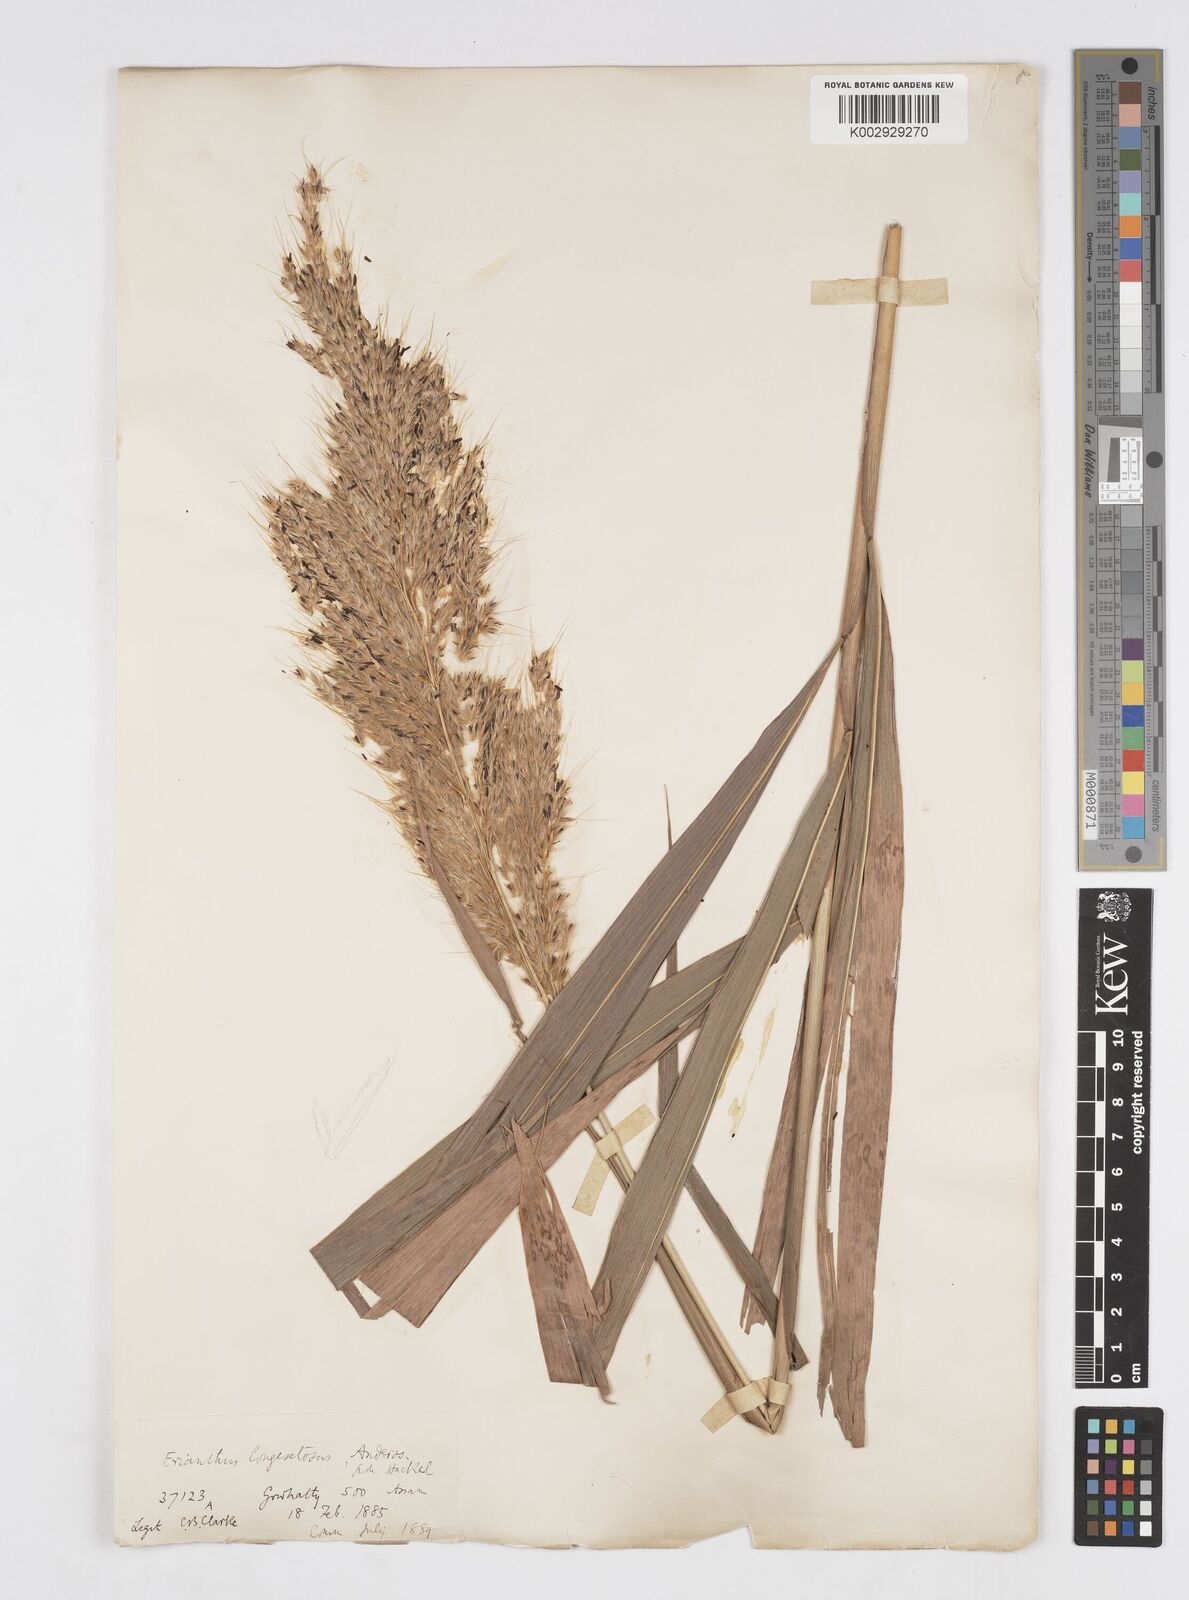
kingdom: Plantae
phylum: Tracheophyta
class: Liliopsida
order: Poales
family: Poaceae
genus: Saccharum
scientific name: Saccharum longesetosum
